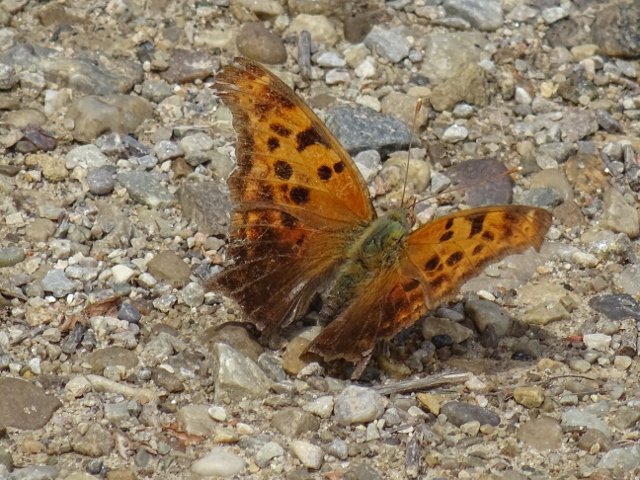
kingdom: Animalia
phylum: Arthropoda
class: Insecta
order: Lepidoptera
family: Nymphalidae
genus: Polygonia
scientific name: Polygonia
